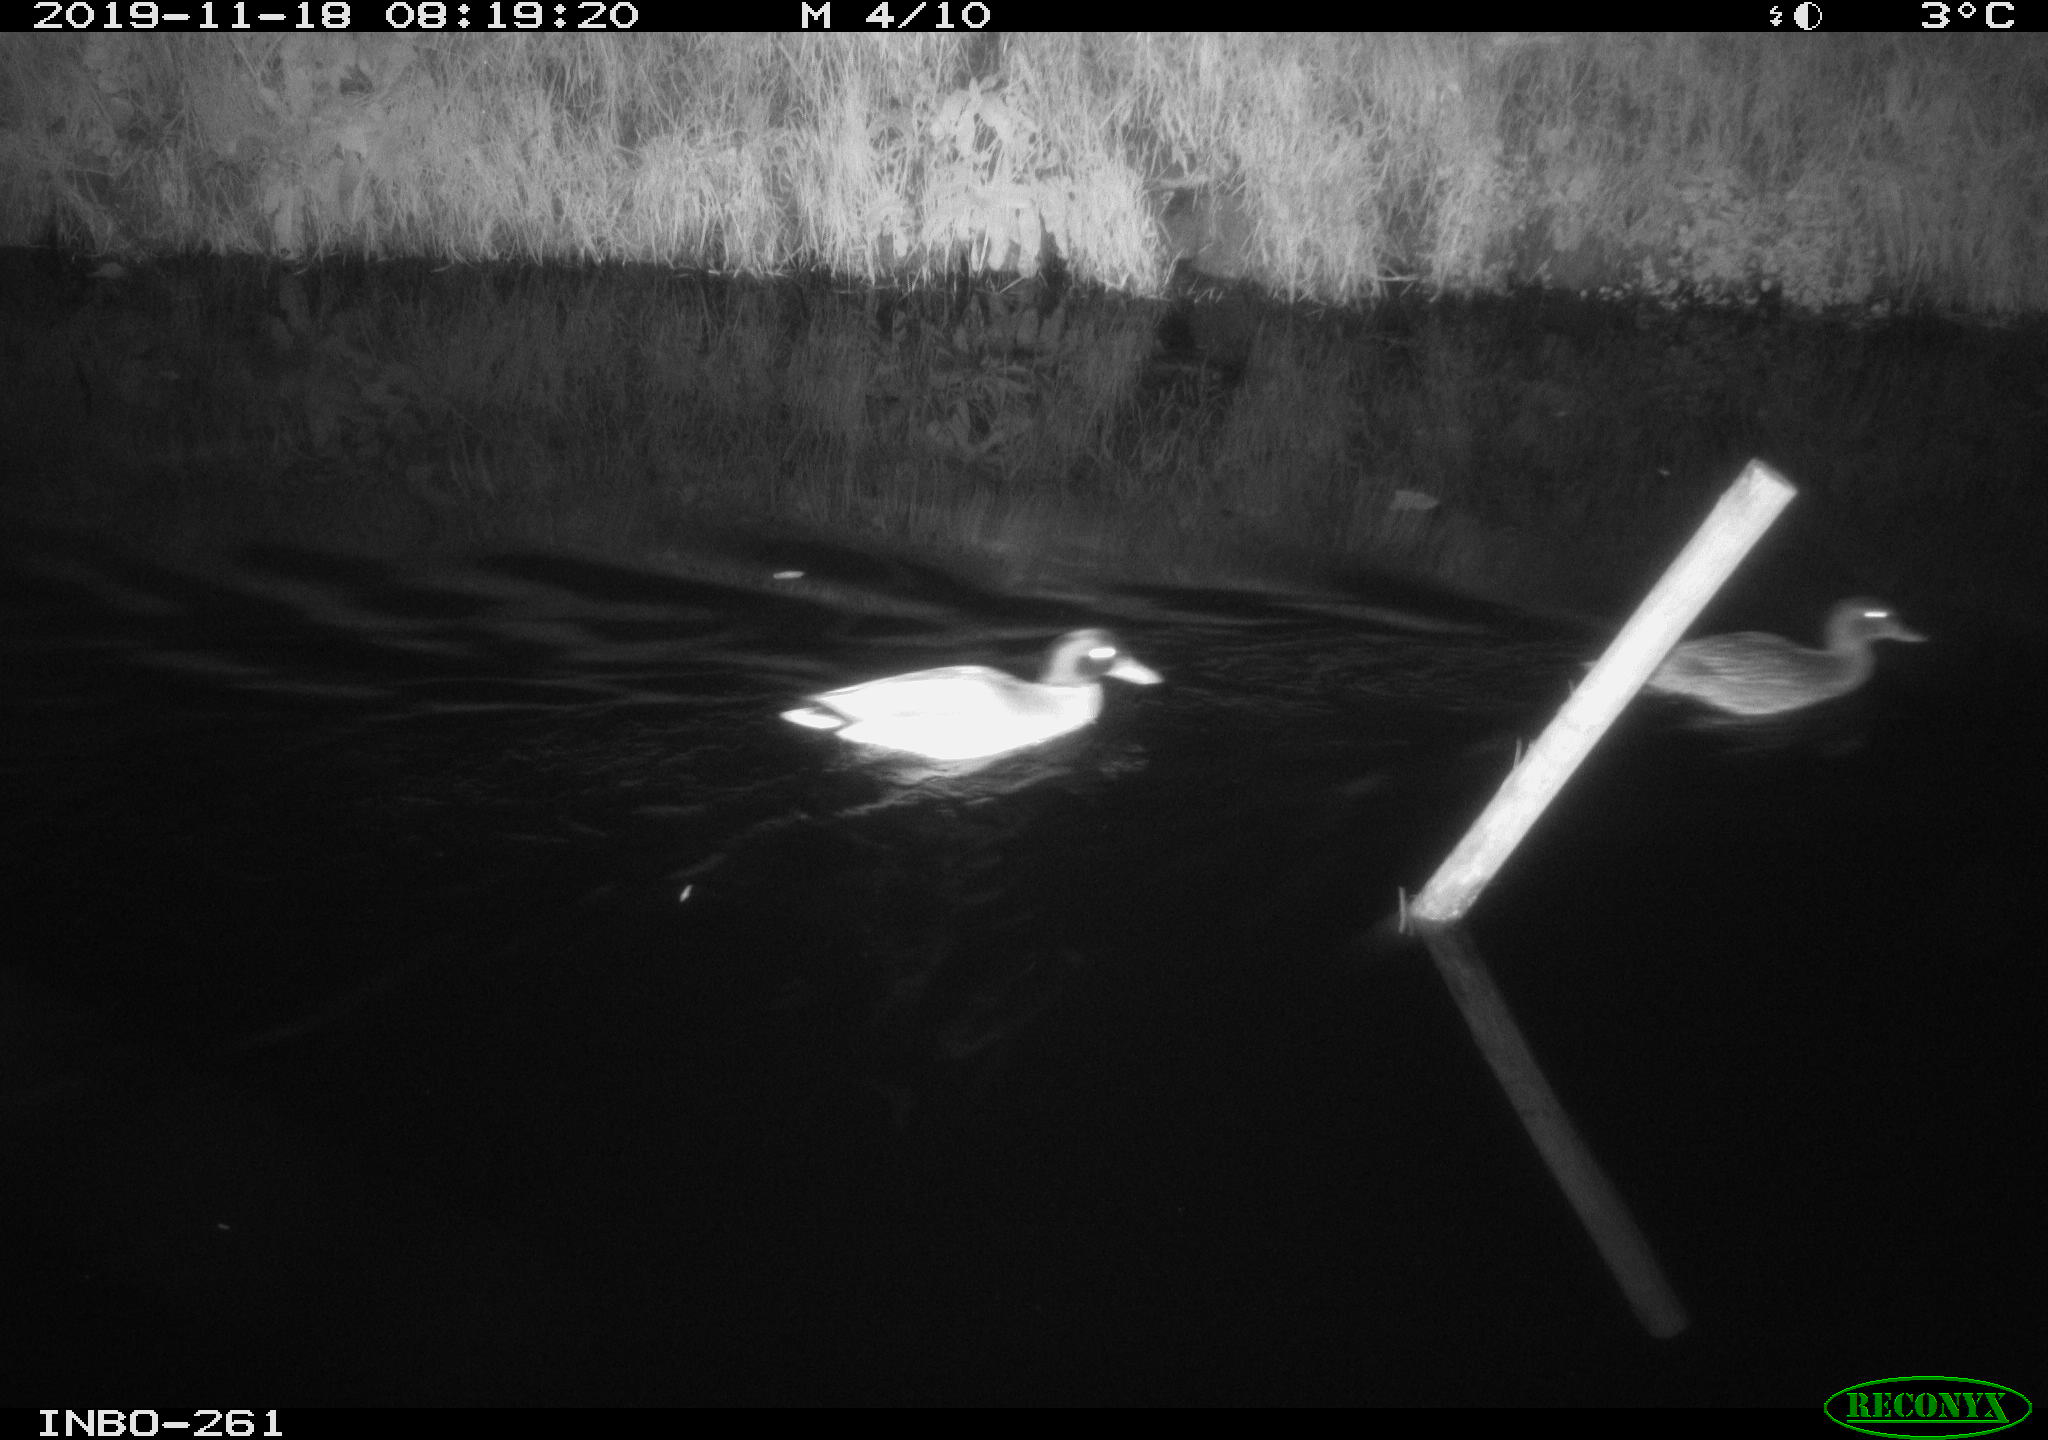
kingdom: Animalia
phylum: Chordata
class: Aves
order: Anseriformes
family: Anatidae
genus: Anas
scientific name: Anas platyrhynchos
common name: Mallard
